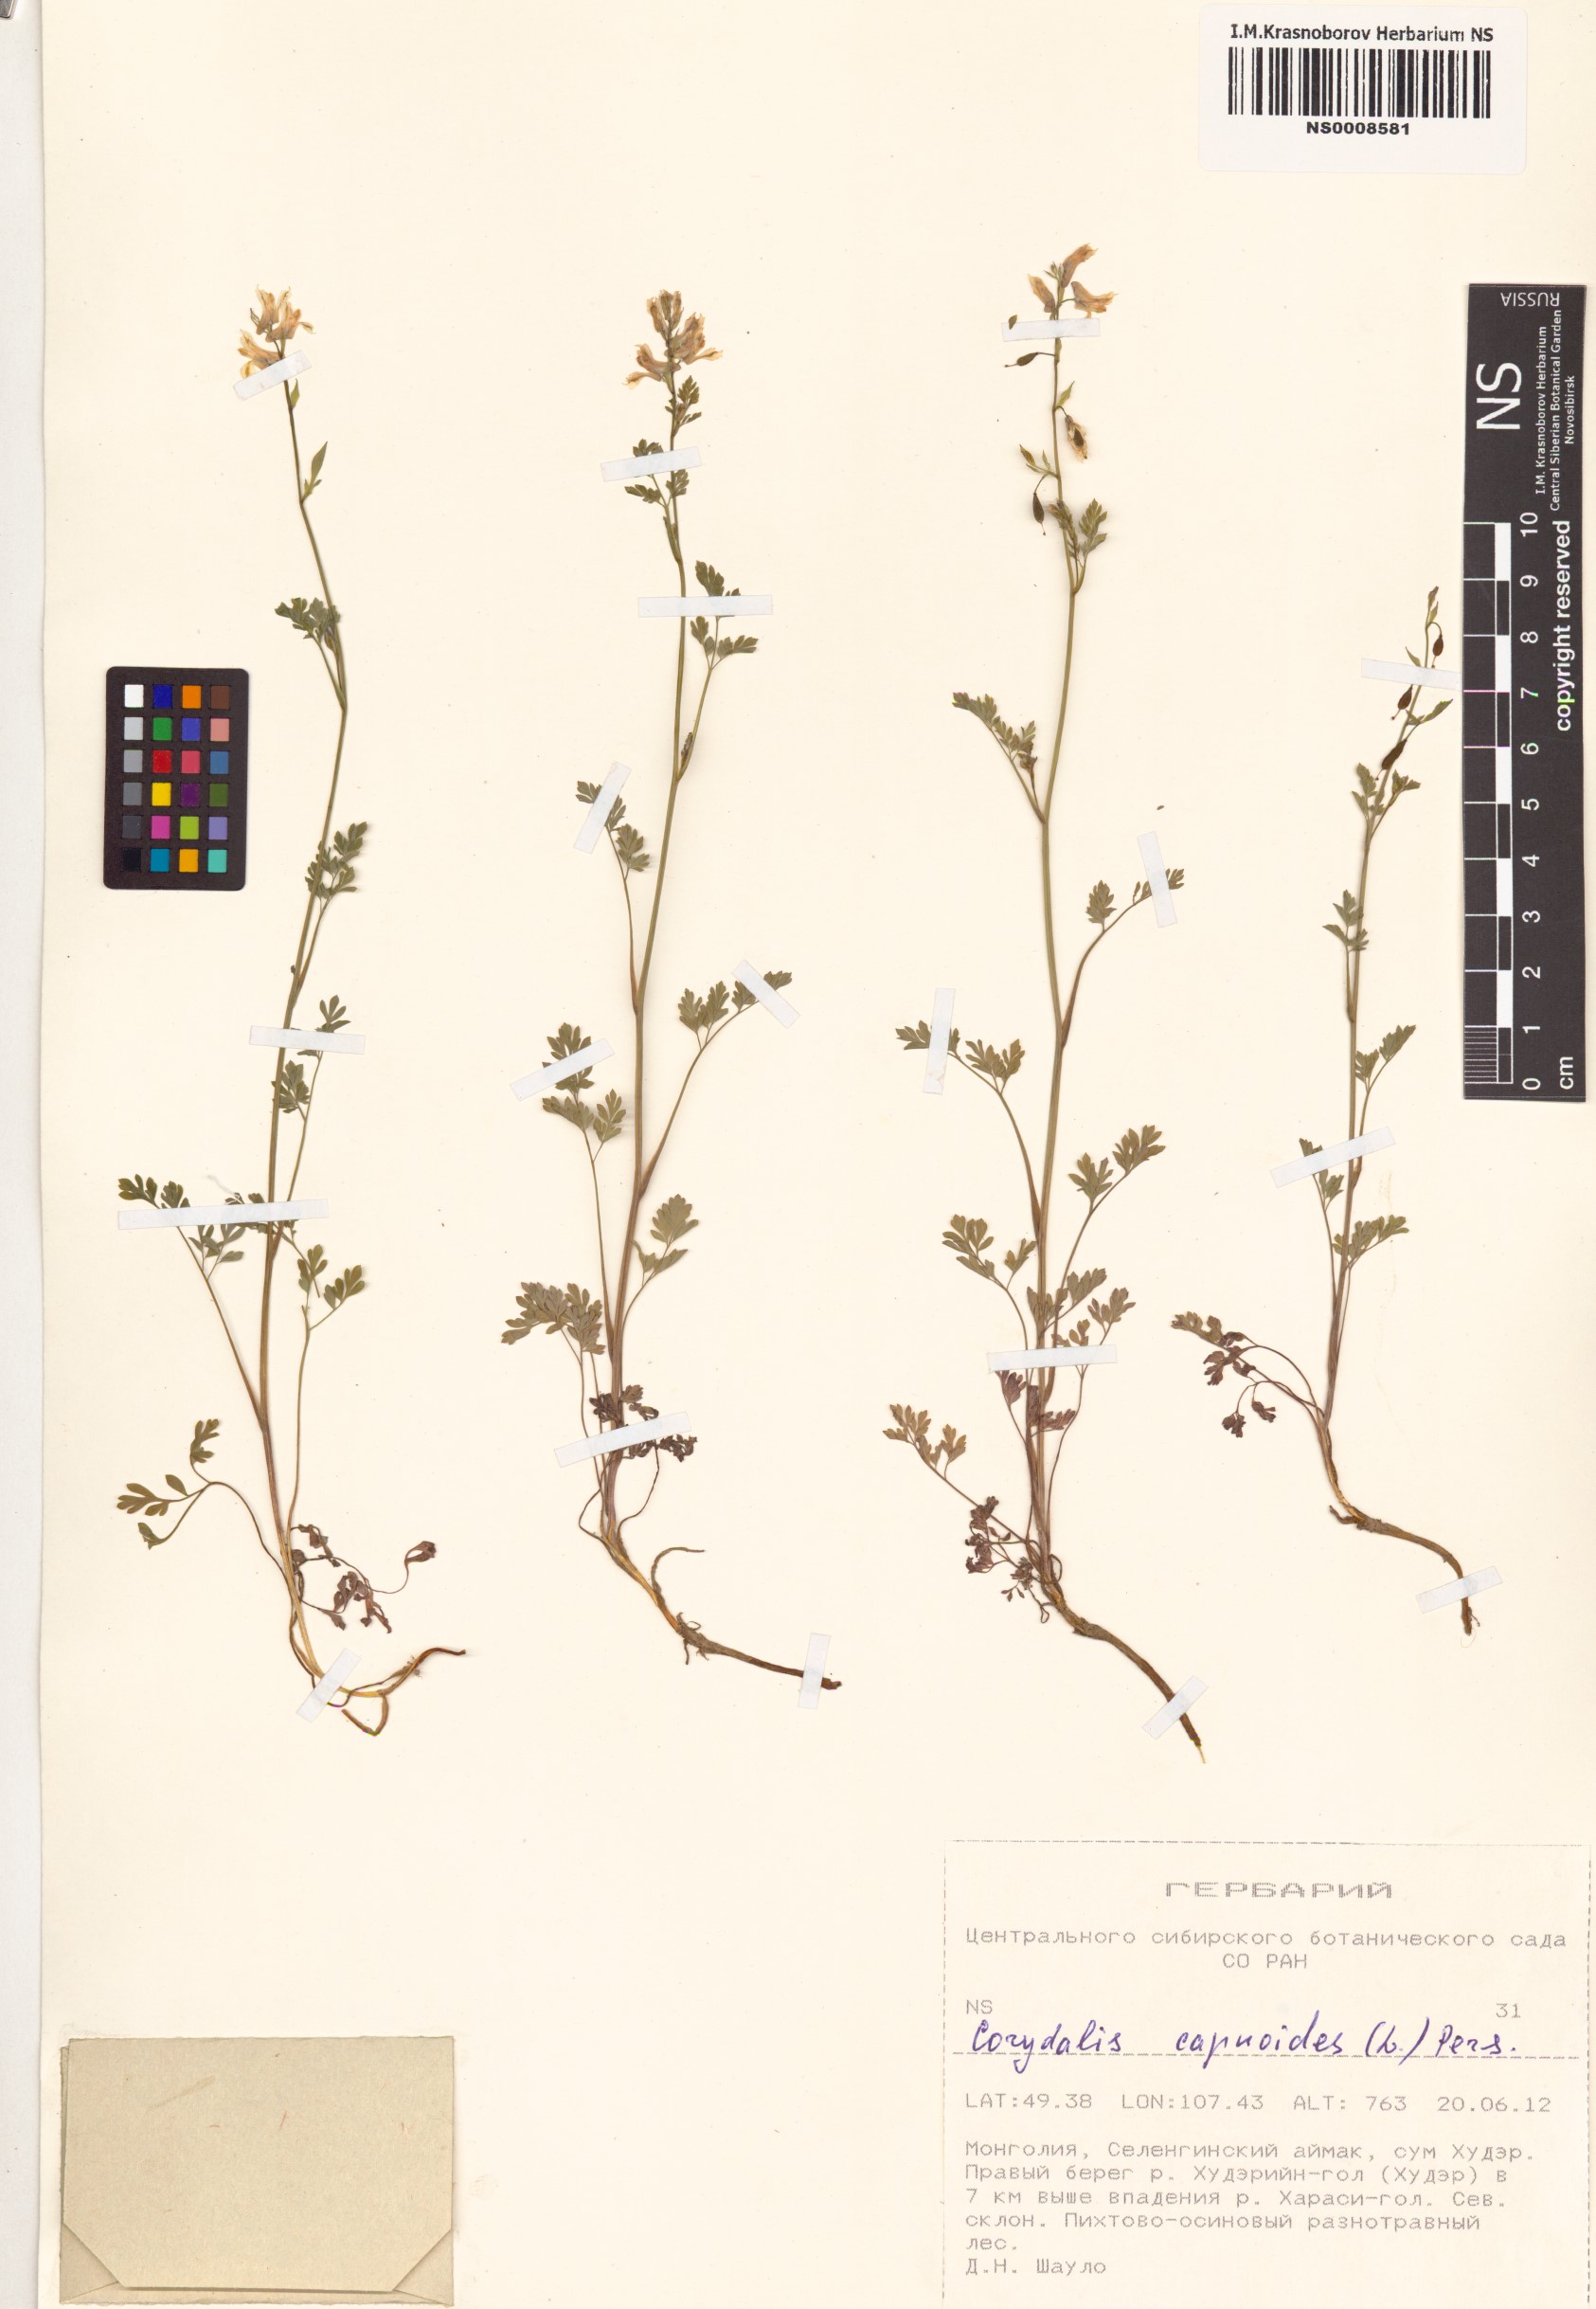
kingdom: Plantae
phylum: Tracheophyta
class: Magnoliopsida
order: Ranunculales
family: Papaveraceae
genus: Corydalis
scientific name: Corydalis capnoides
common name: Beaked corydalis
